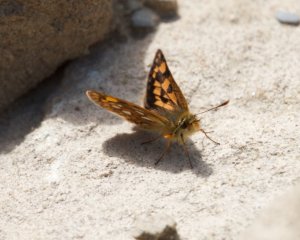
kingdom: Animalia
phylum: Arthropoda
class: Insecta
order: Lepidoptera
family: Hesperiidae
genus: Carterocephalus
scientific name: Carterocephalus palaemon
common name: Chequered Skipper
